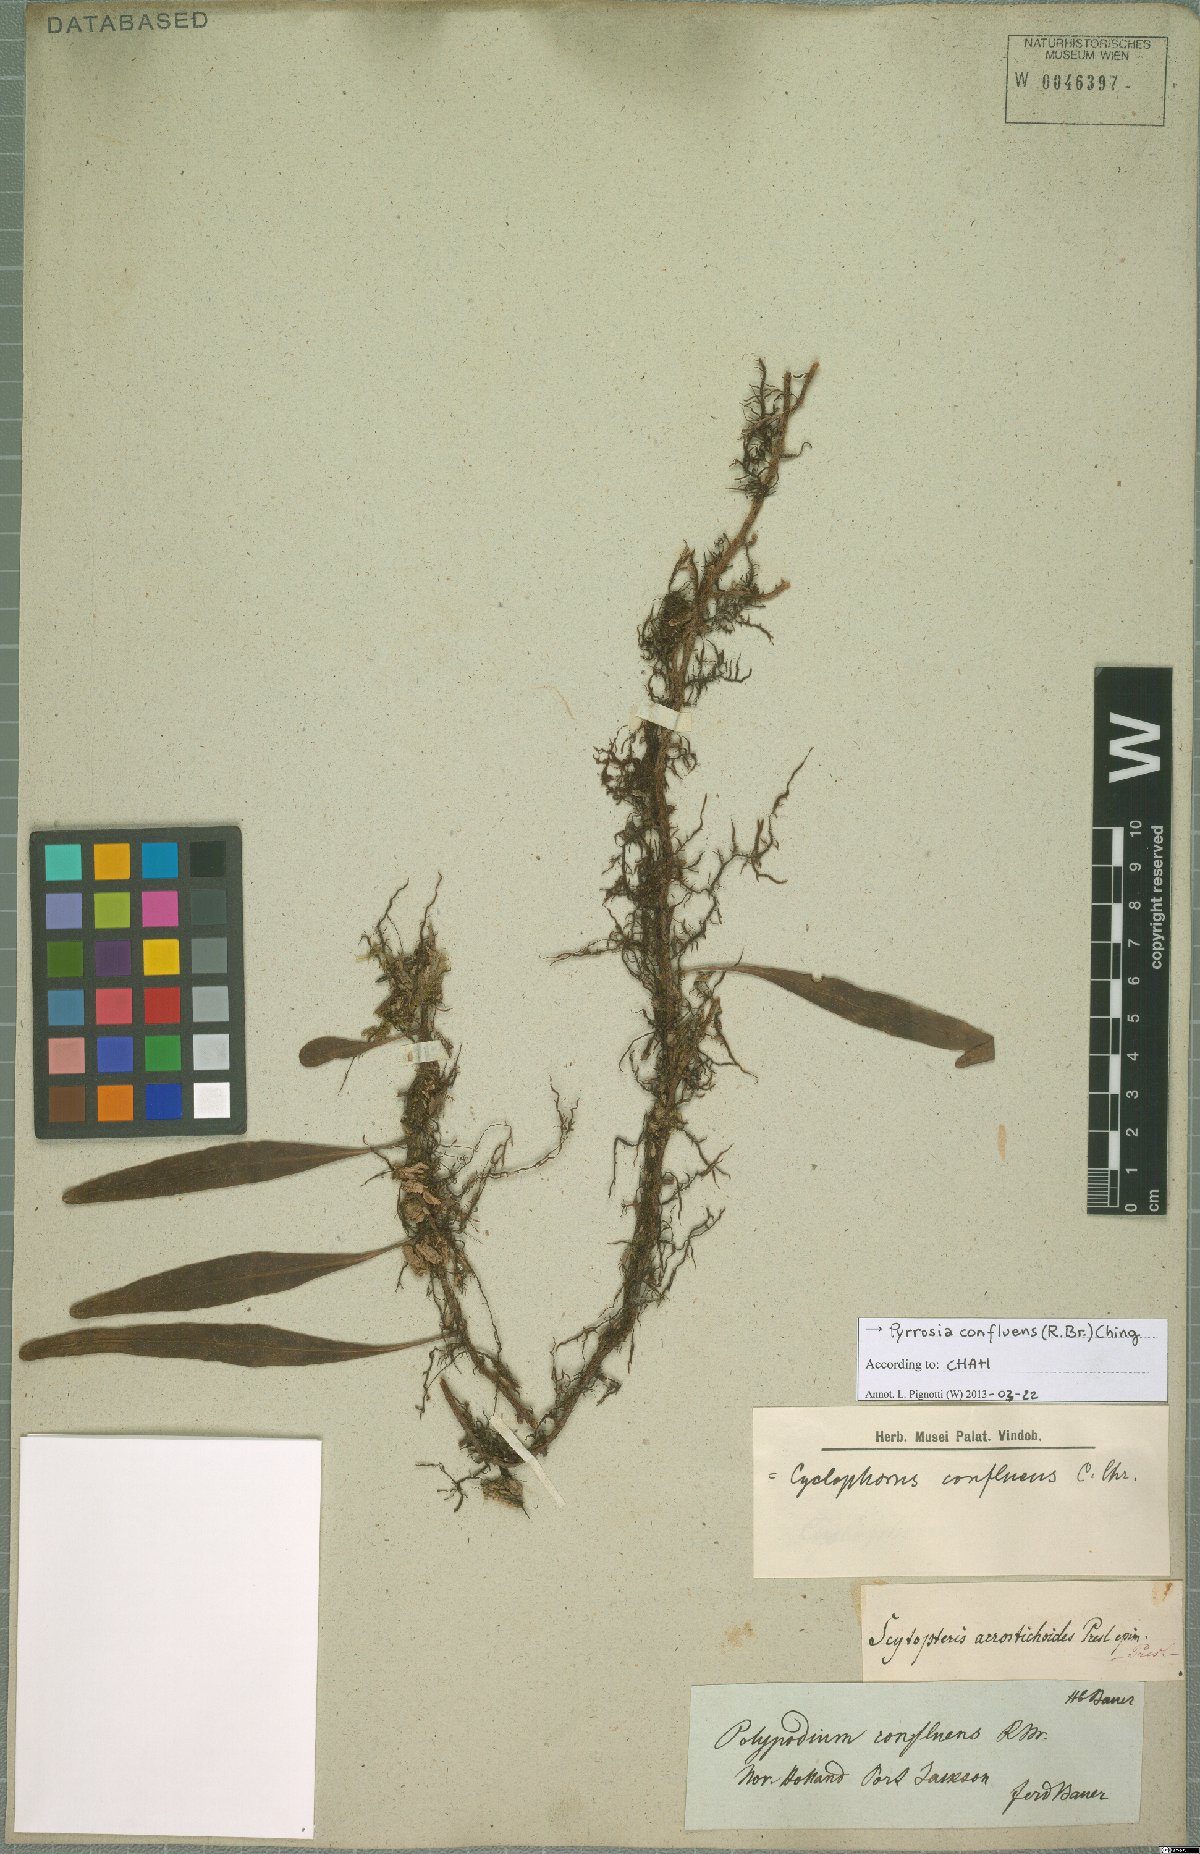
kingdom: Plantae
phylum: Tracheophyta
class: Polypodiopsida
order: Polypodiales
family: Polypodiaceae
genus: Pyrrosia
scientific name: Pyrrosia confluens
